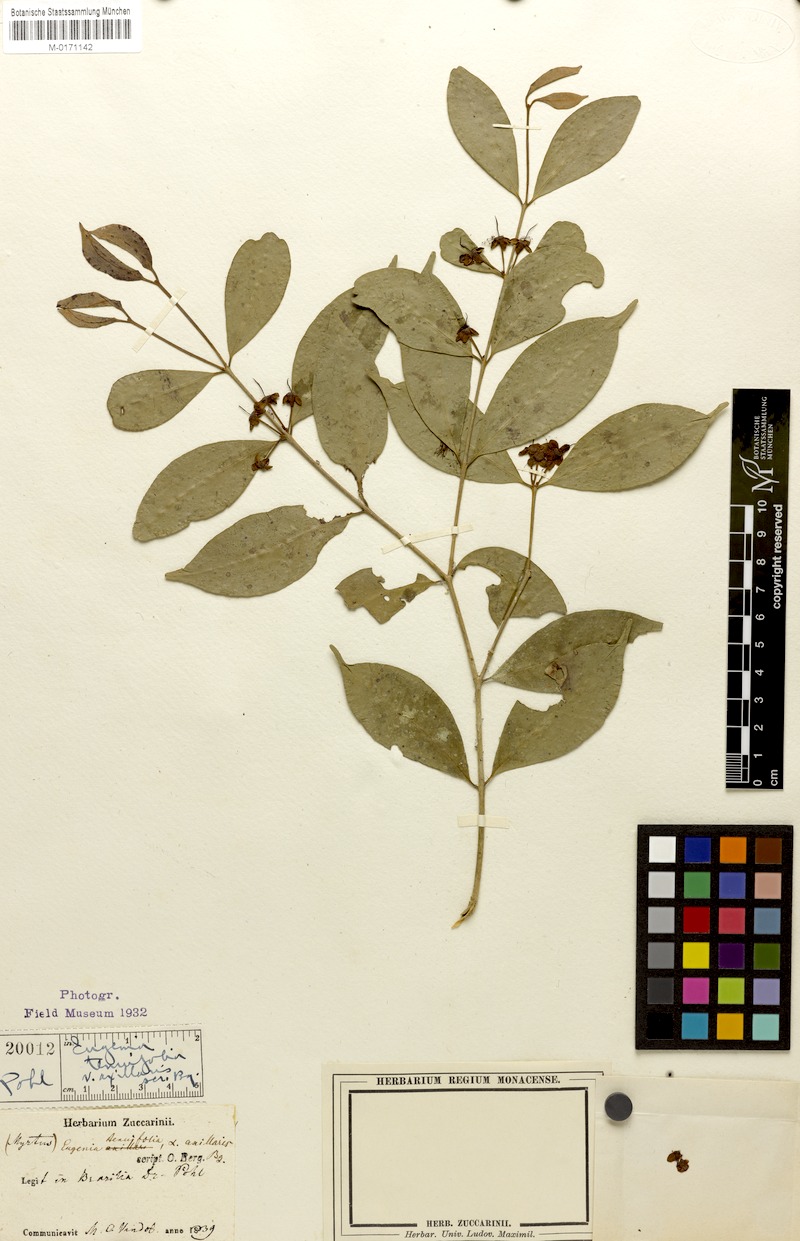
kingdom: Plantae
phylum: Tracheophyta
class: Magnoliopsida
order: Myrtales
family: Myrtaceae
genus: Eugenia
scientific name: Eugenia decussata
